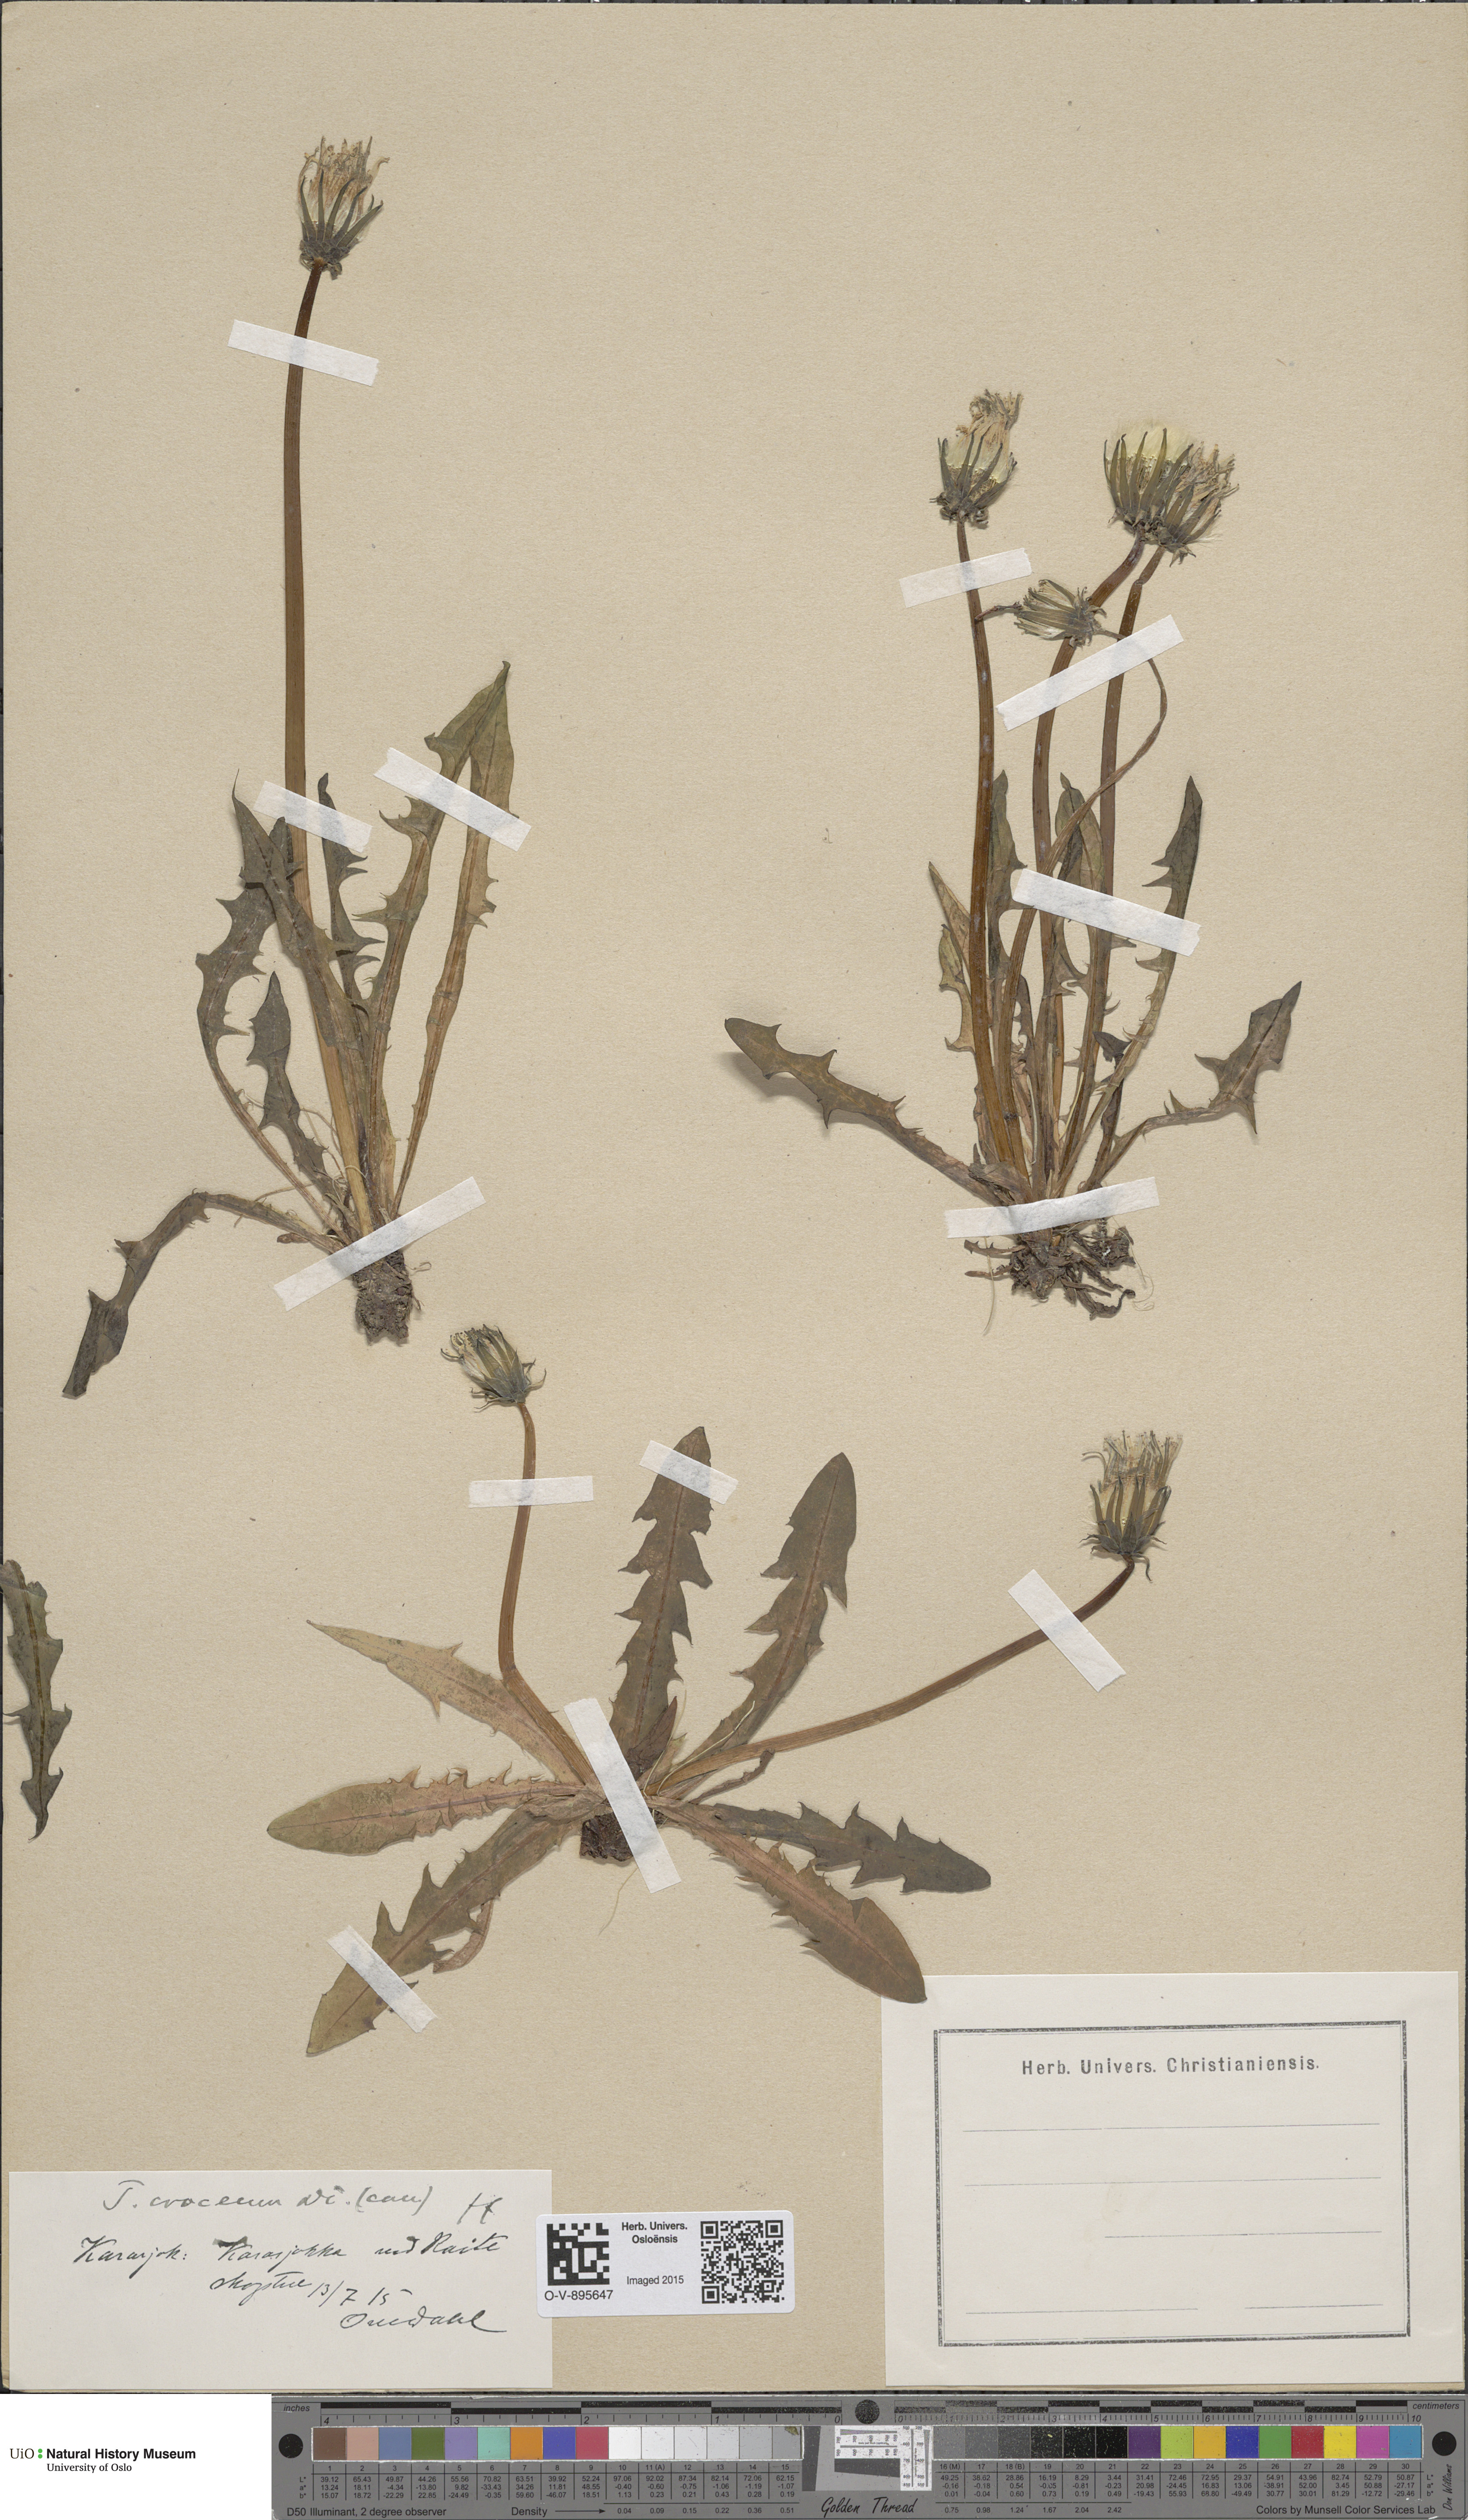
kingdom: Plantae
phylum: Tracheophyta
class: Magnoliopsida
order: Asterales
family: Asteraceae
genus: Taraxacum
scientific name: Taraxacum croceum
